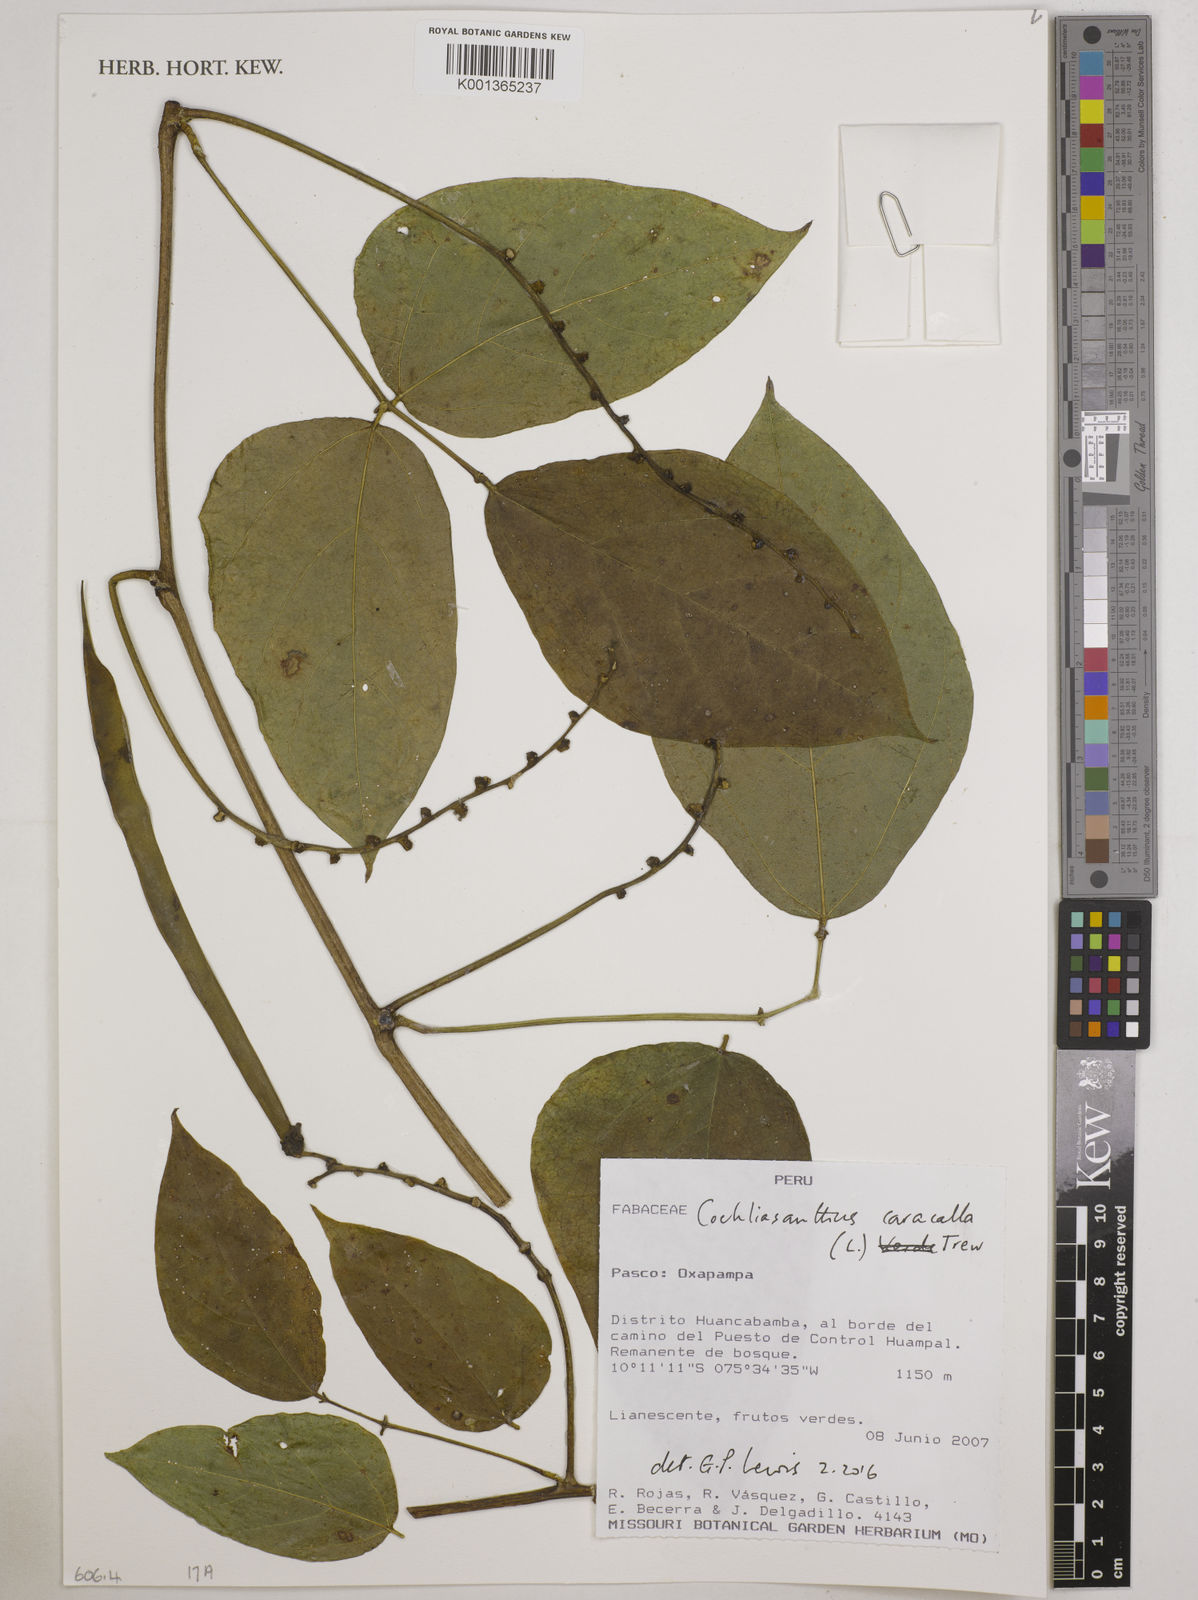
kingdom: Plantae
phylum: Tracheophyta
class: Magnoliopsida
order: Fabales
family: Fabaceae
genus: Cochliasanthus
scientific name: Cochliasanthus caracalla
